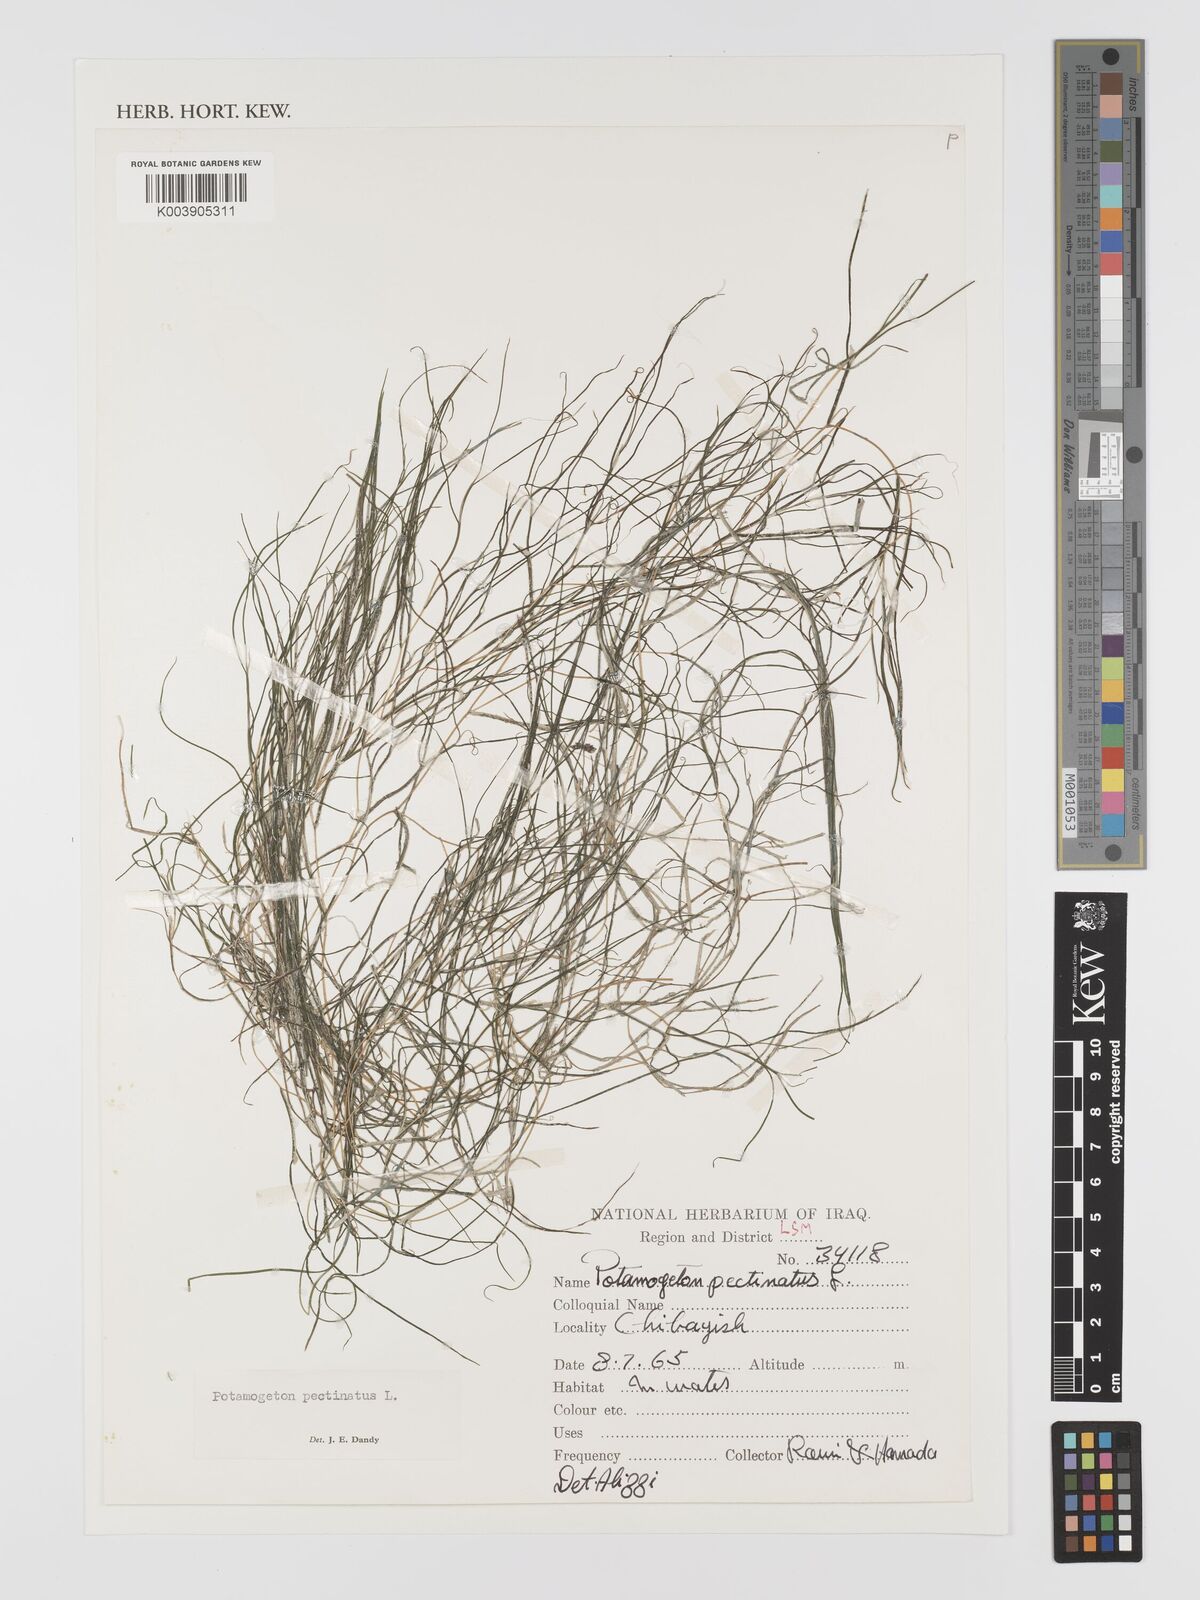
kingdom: Plantae
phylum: Tracheophyta
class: Liliopsida
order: Alismatales
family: Potamogetonaceae
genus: Stuckenia
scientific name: Stuckenia pectinata
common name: Sago pondweed
